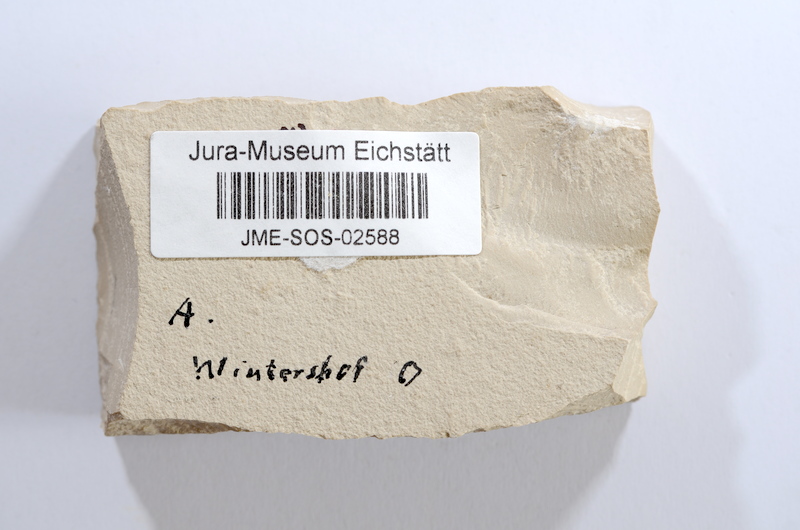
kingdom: Animalia
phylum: Chordata
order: Elopiformes
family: Anaethalionidae
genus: Anaethalion
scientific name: Anaethalion
